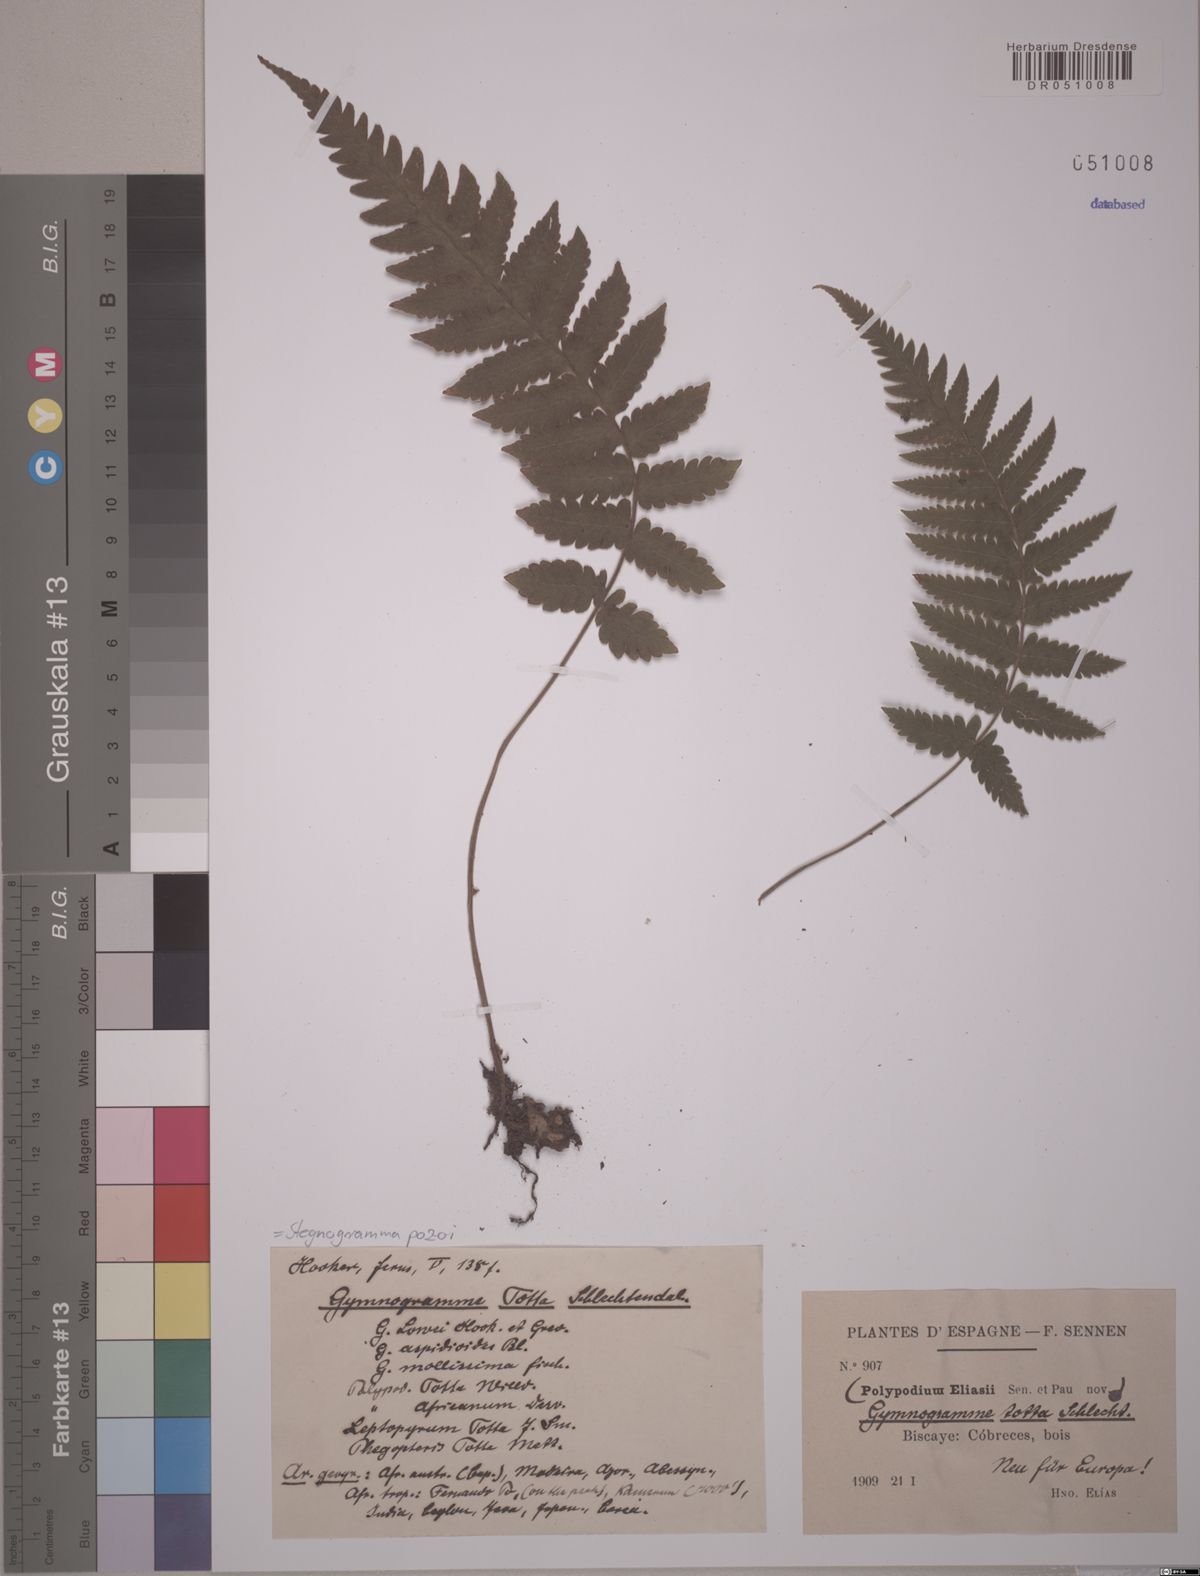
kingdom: Plantae
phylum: Tracheophyta
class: Polypodiopsida
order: Polypodiales
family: Thelypteridaceae
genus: Leptogramma
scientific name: Leptogramma pozoi
